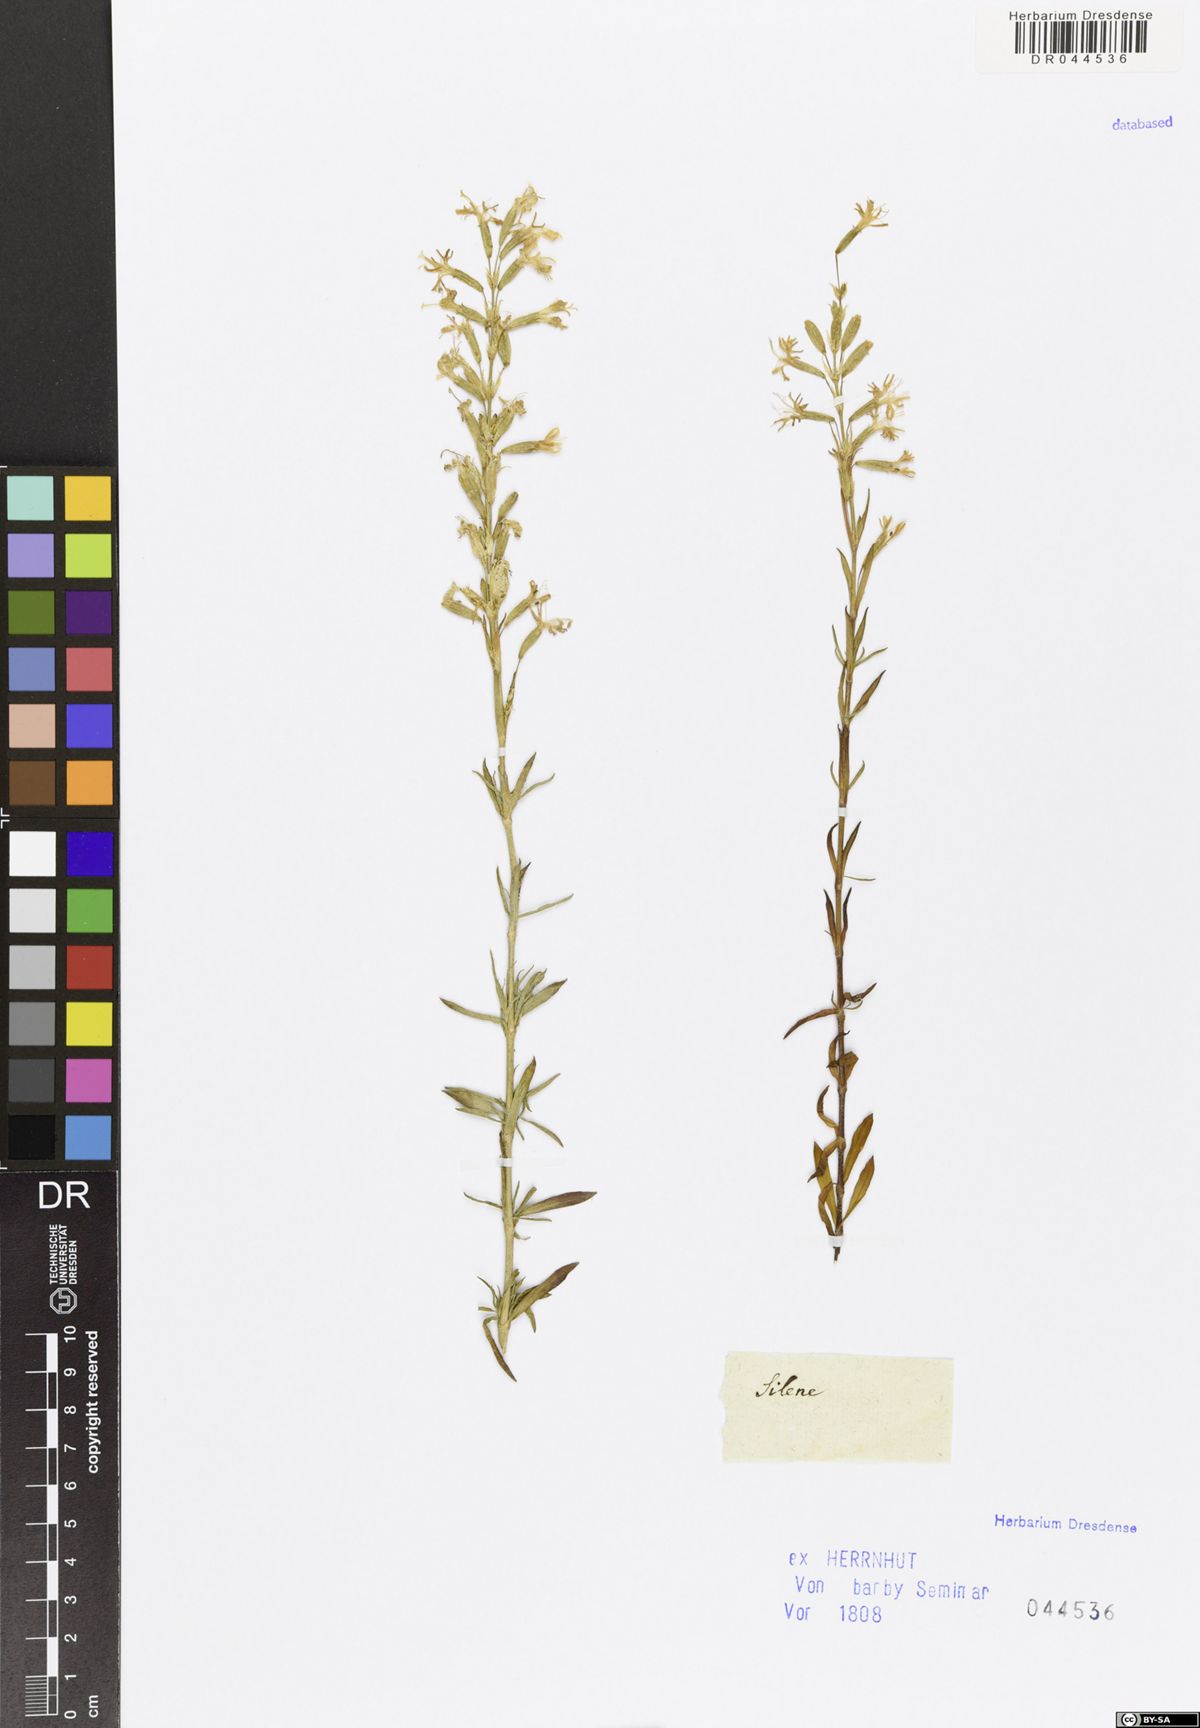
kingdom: Plantae
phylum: Tracheophyta
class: Magnoliopsida
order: Caryophyllales
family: Caryophyllaceae
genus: Silene
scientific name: Silene
